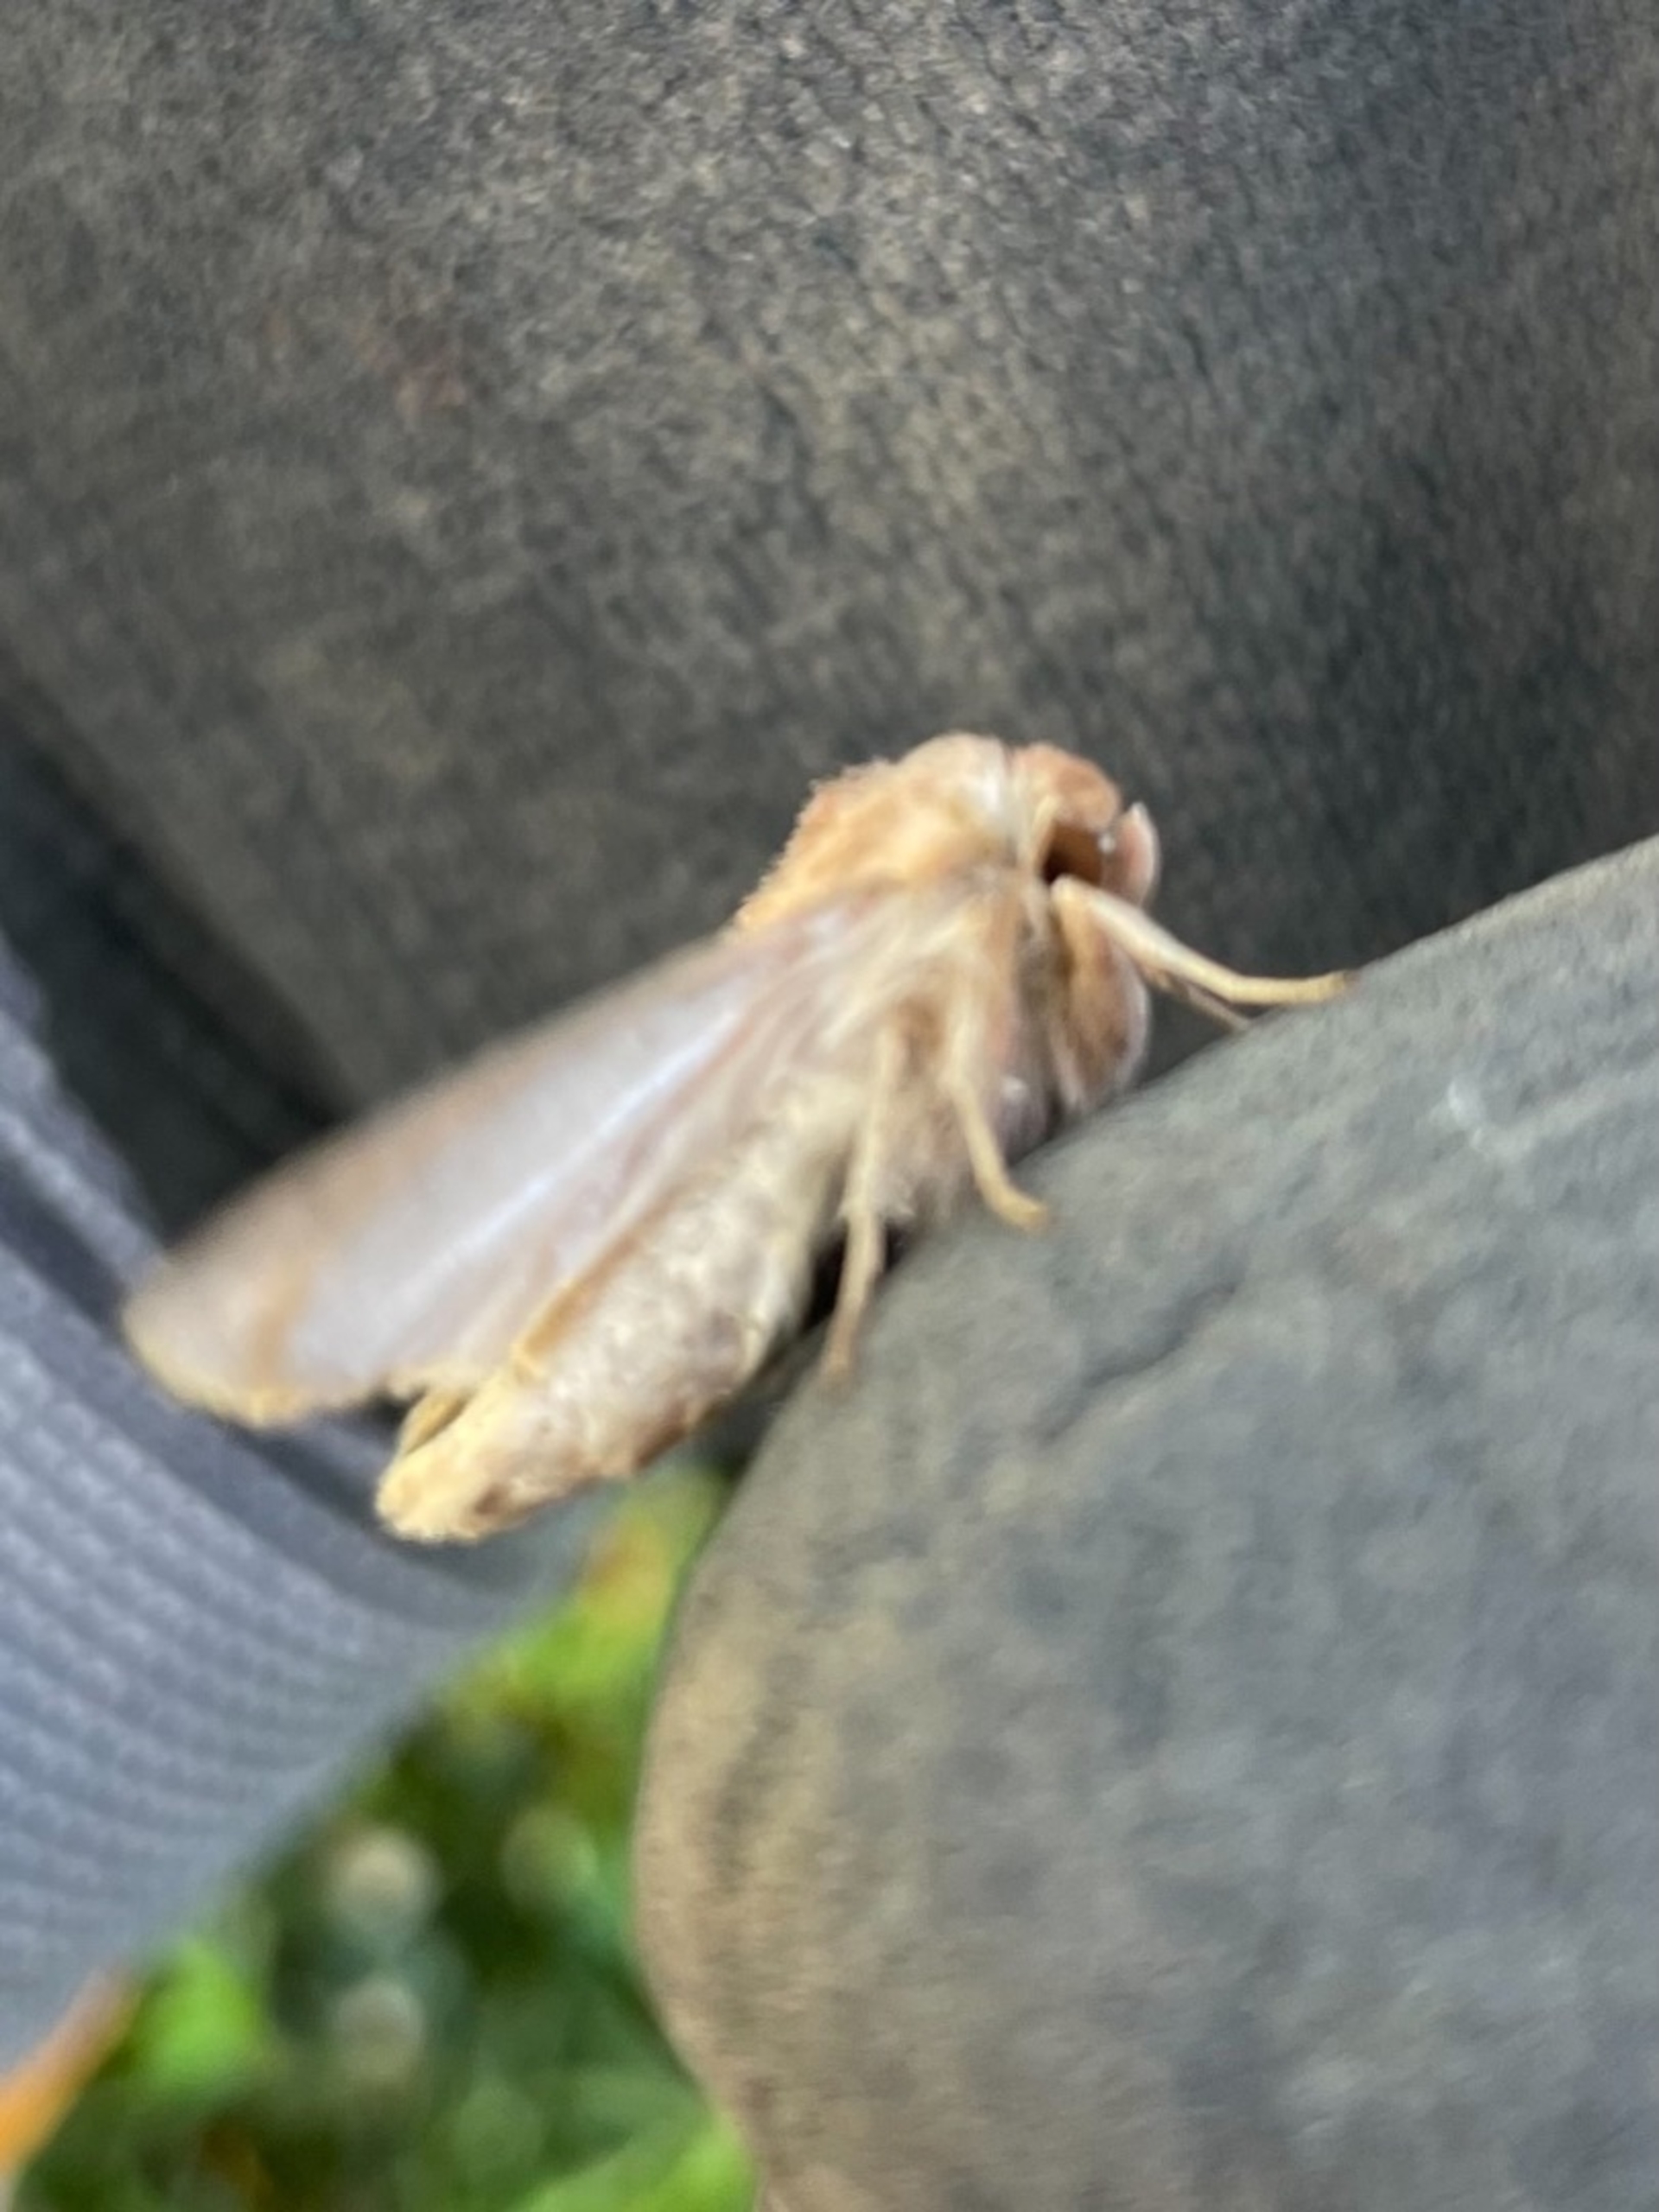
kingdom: Animalia
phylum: Arthropoda
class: Insecta
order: Lepidoptera
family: Noctuidae
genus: Mythimna
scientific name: Mythimna albipuncta
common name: Hvid-punkt græsugle
